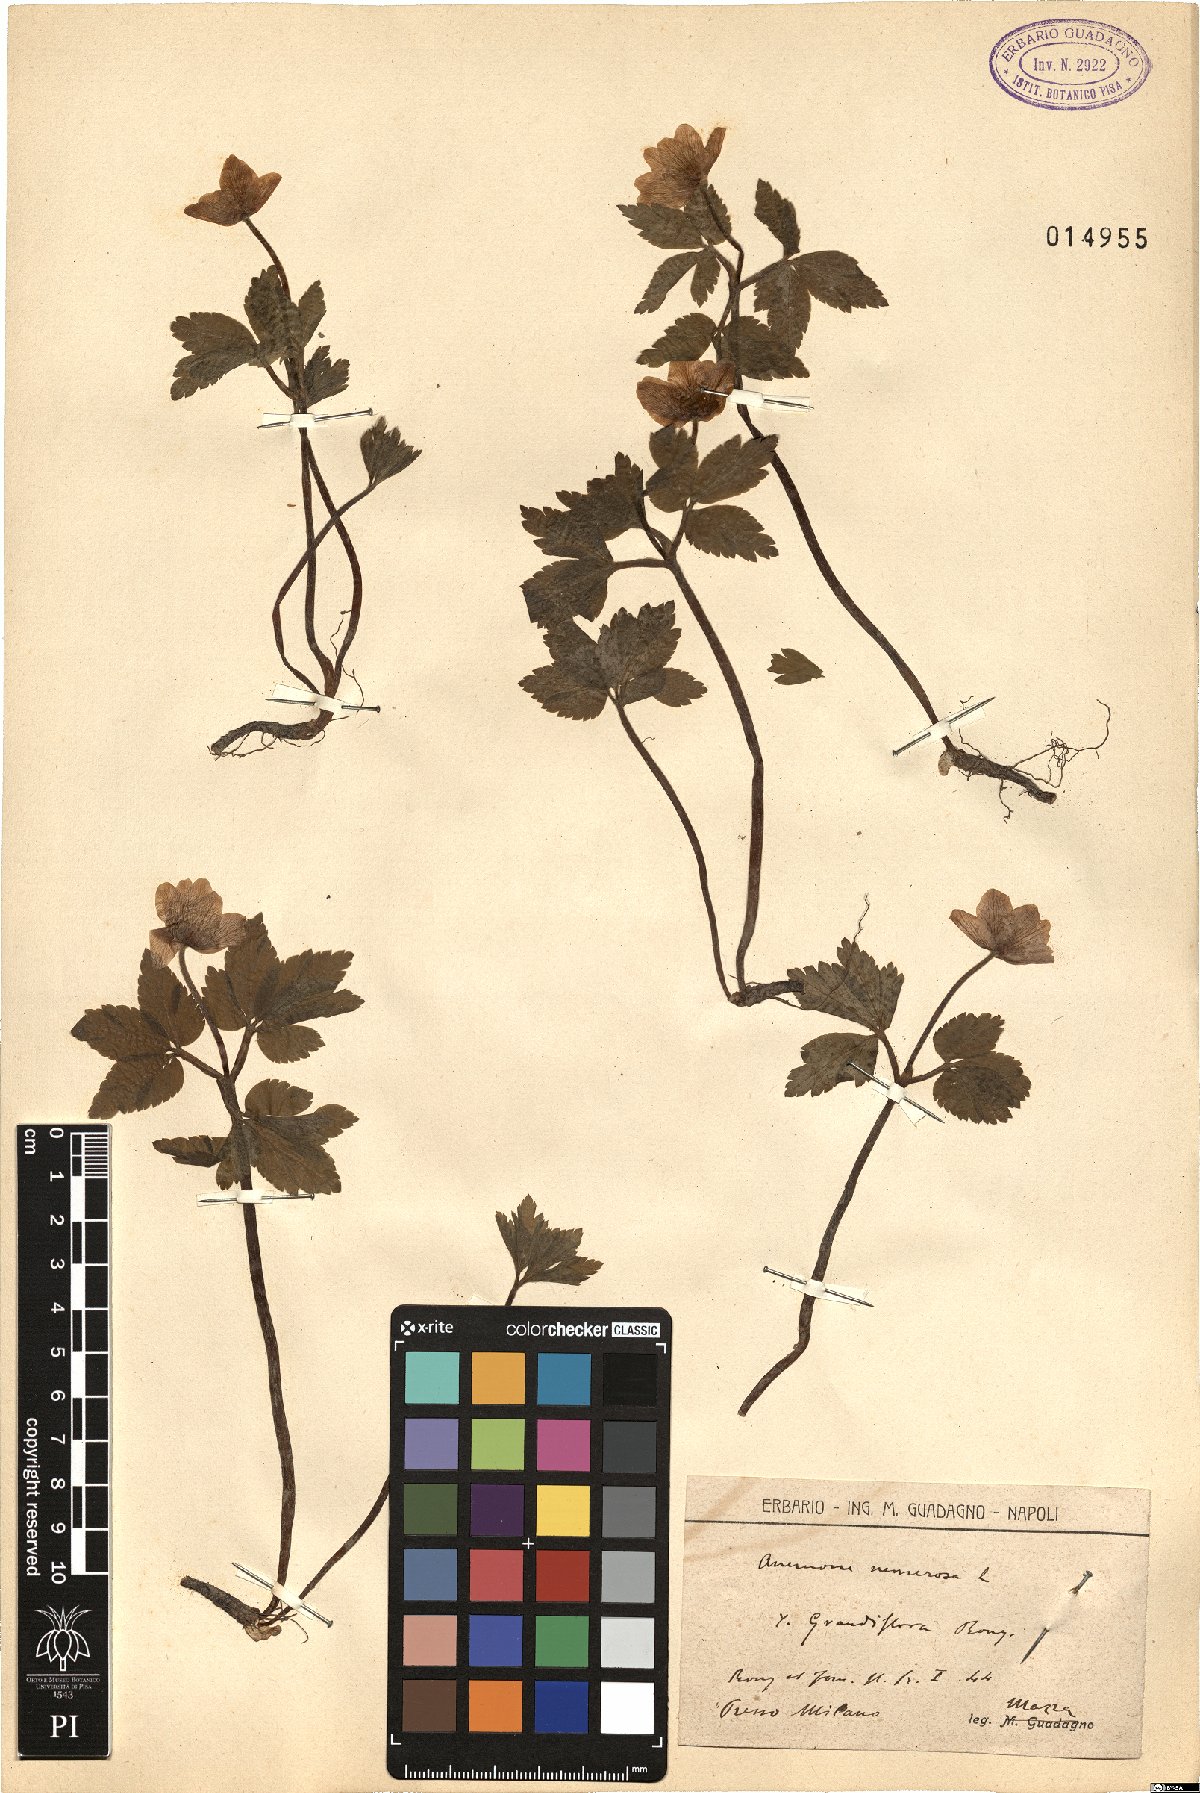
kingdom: Plantae
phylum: Tracheophyta
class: Magnoliopsida
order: Ranunculales
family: Ranunculaceae
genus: Anemone
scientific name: Anemone nemorosa
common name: Wood anemone
